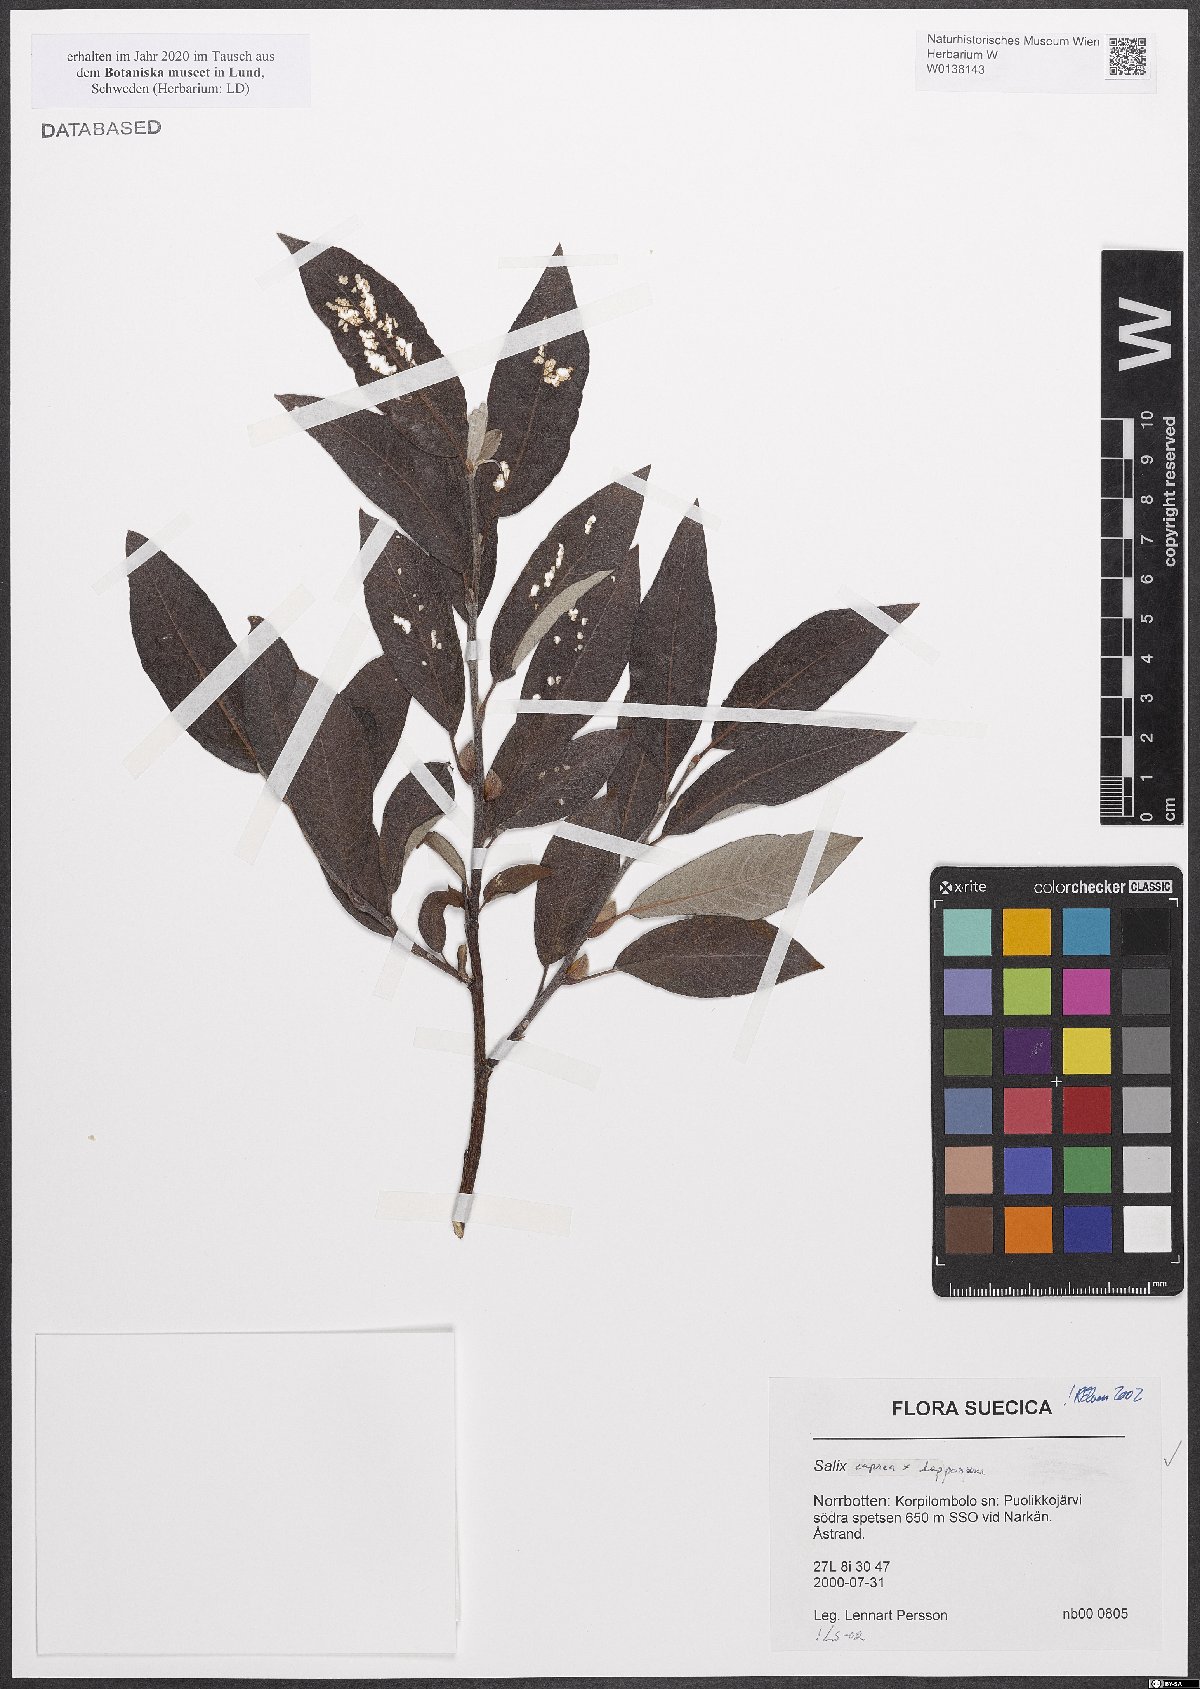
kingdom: Plantae
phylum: Tracheophyta
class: Magnoliopsida
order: Malpighiales
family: Salicaceae
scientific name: Salicaceae
